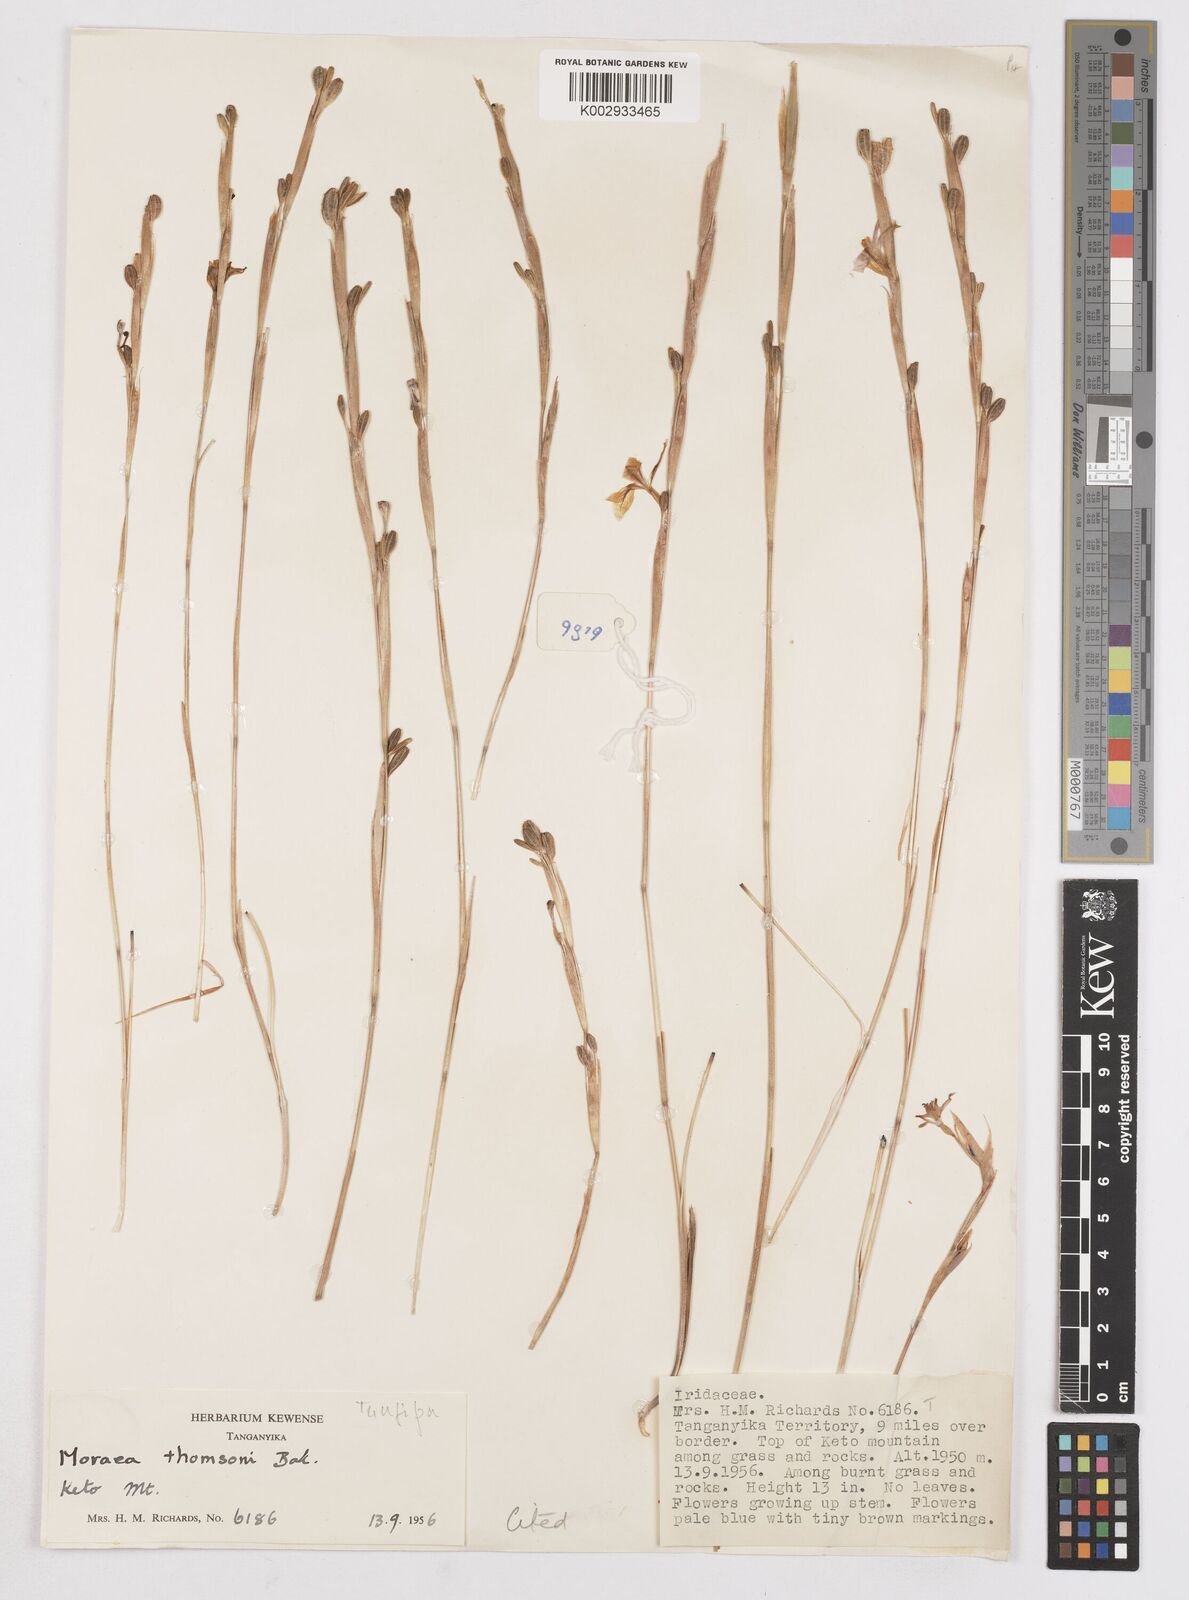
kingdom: Plantae
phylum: Tracheophyta
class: Liliopsida
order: Asparagales
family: Iridaceae
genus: Moraea
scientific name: Moraea thomsonii
